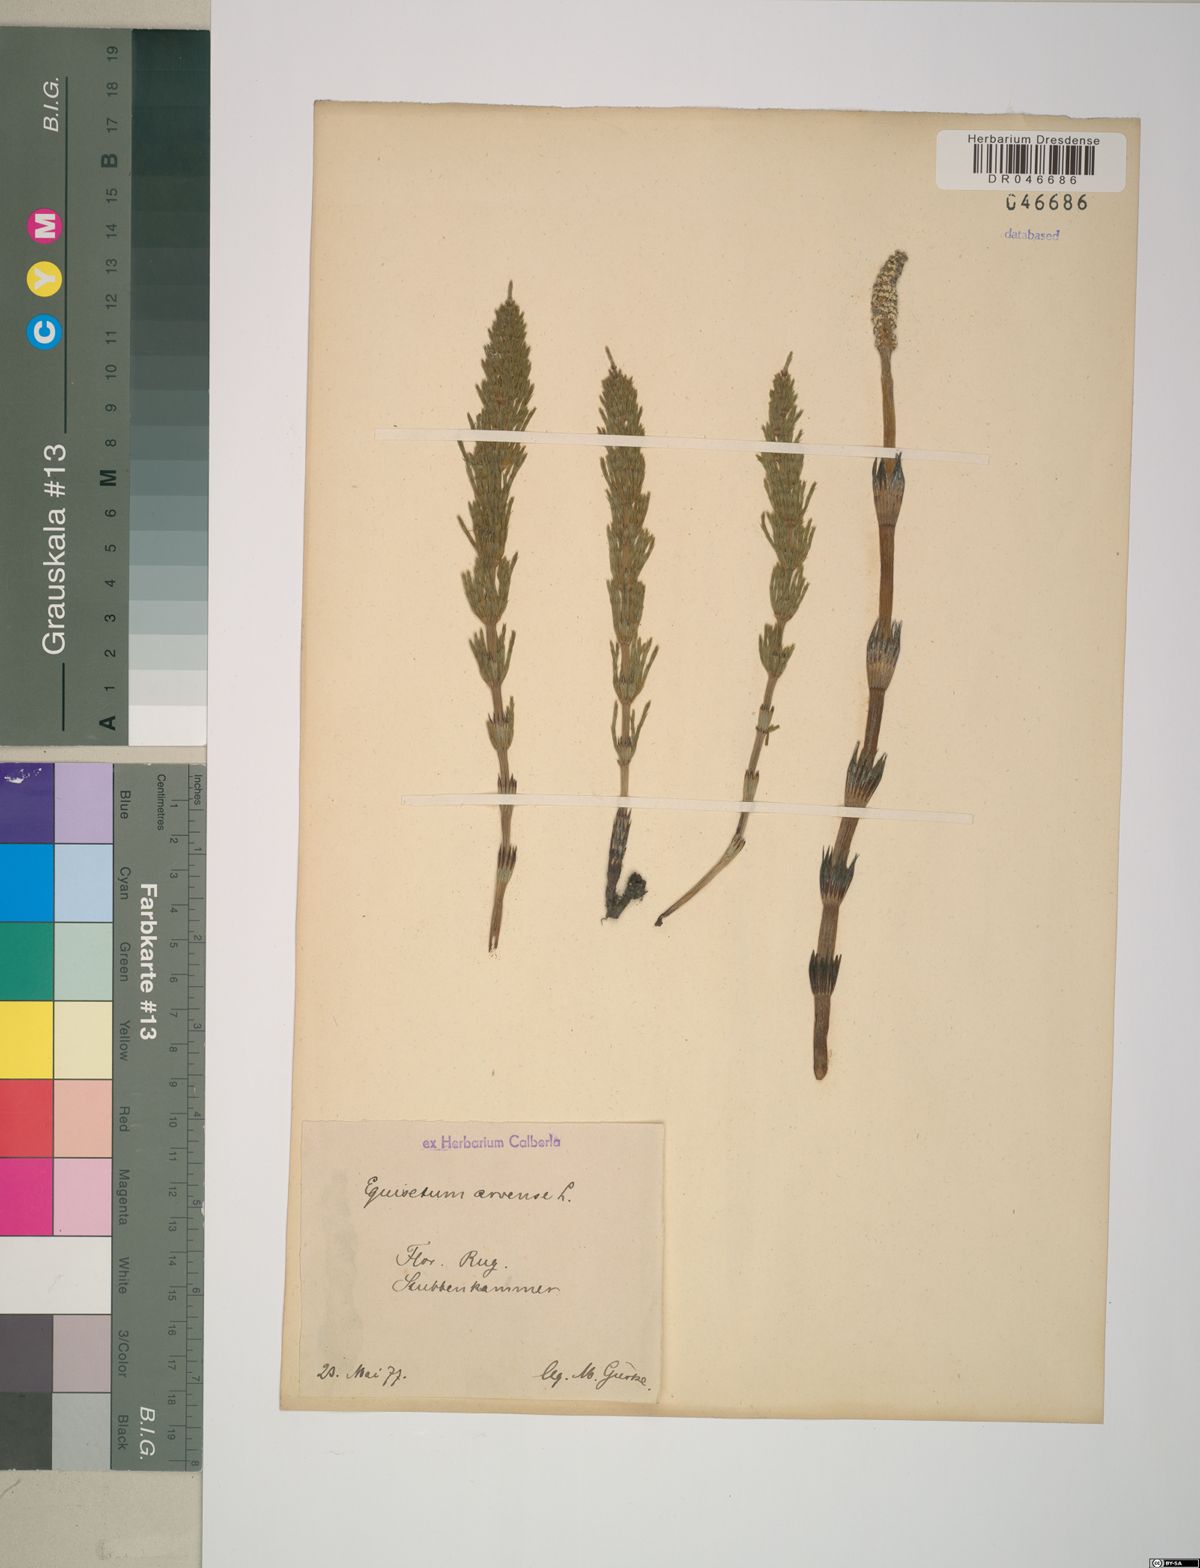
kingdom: Plantae
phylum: Tracheophyta
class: Polypodiopsida
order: Equisetales
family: Equisetaceae
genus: Equisetum
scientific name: Equisetum arvense
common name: Field horsetail
